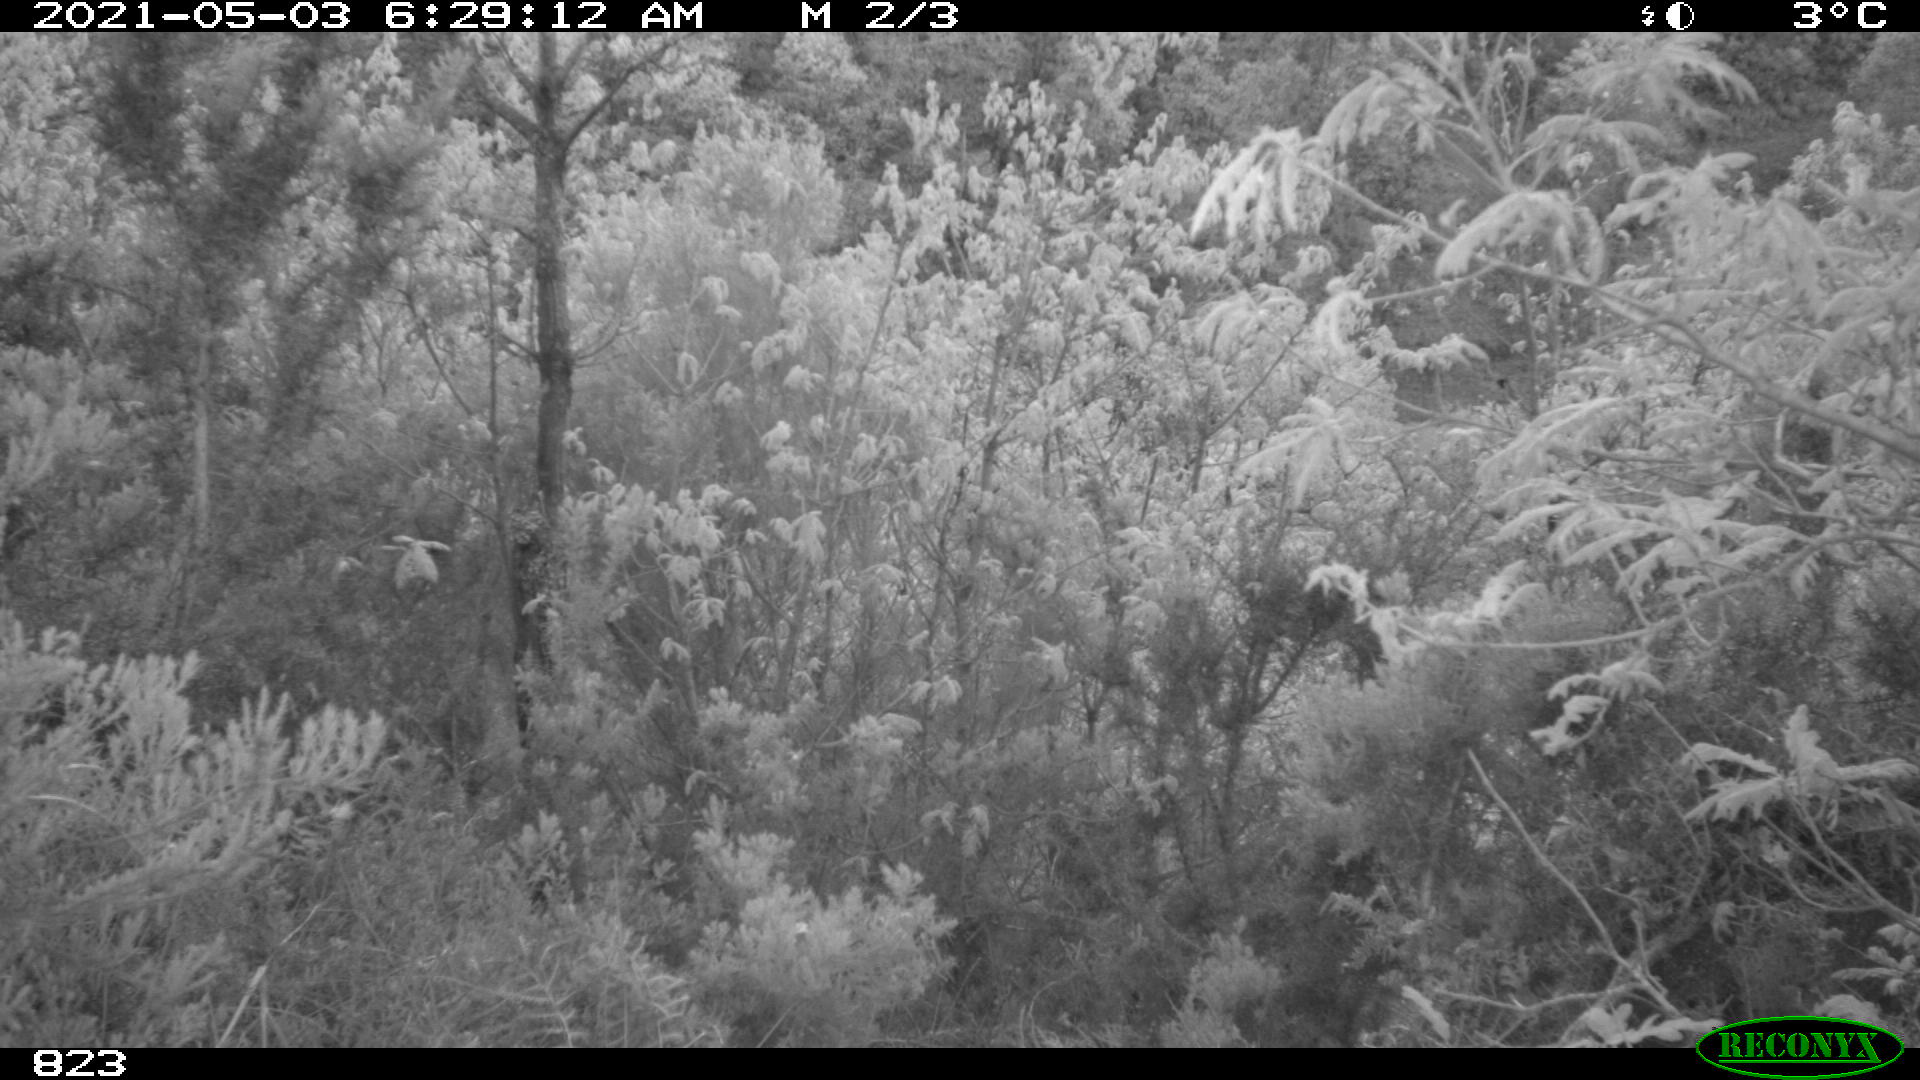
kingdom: Animalia
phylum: Chordata
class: Mammalia
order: Artiodactyla
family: Suidae
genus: Sus
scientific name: Sus scrofa
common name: Wild boar
